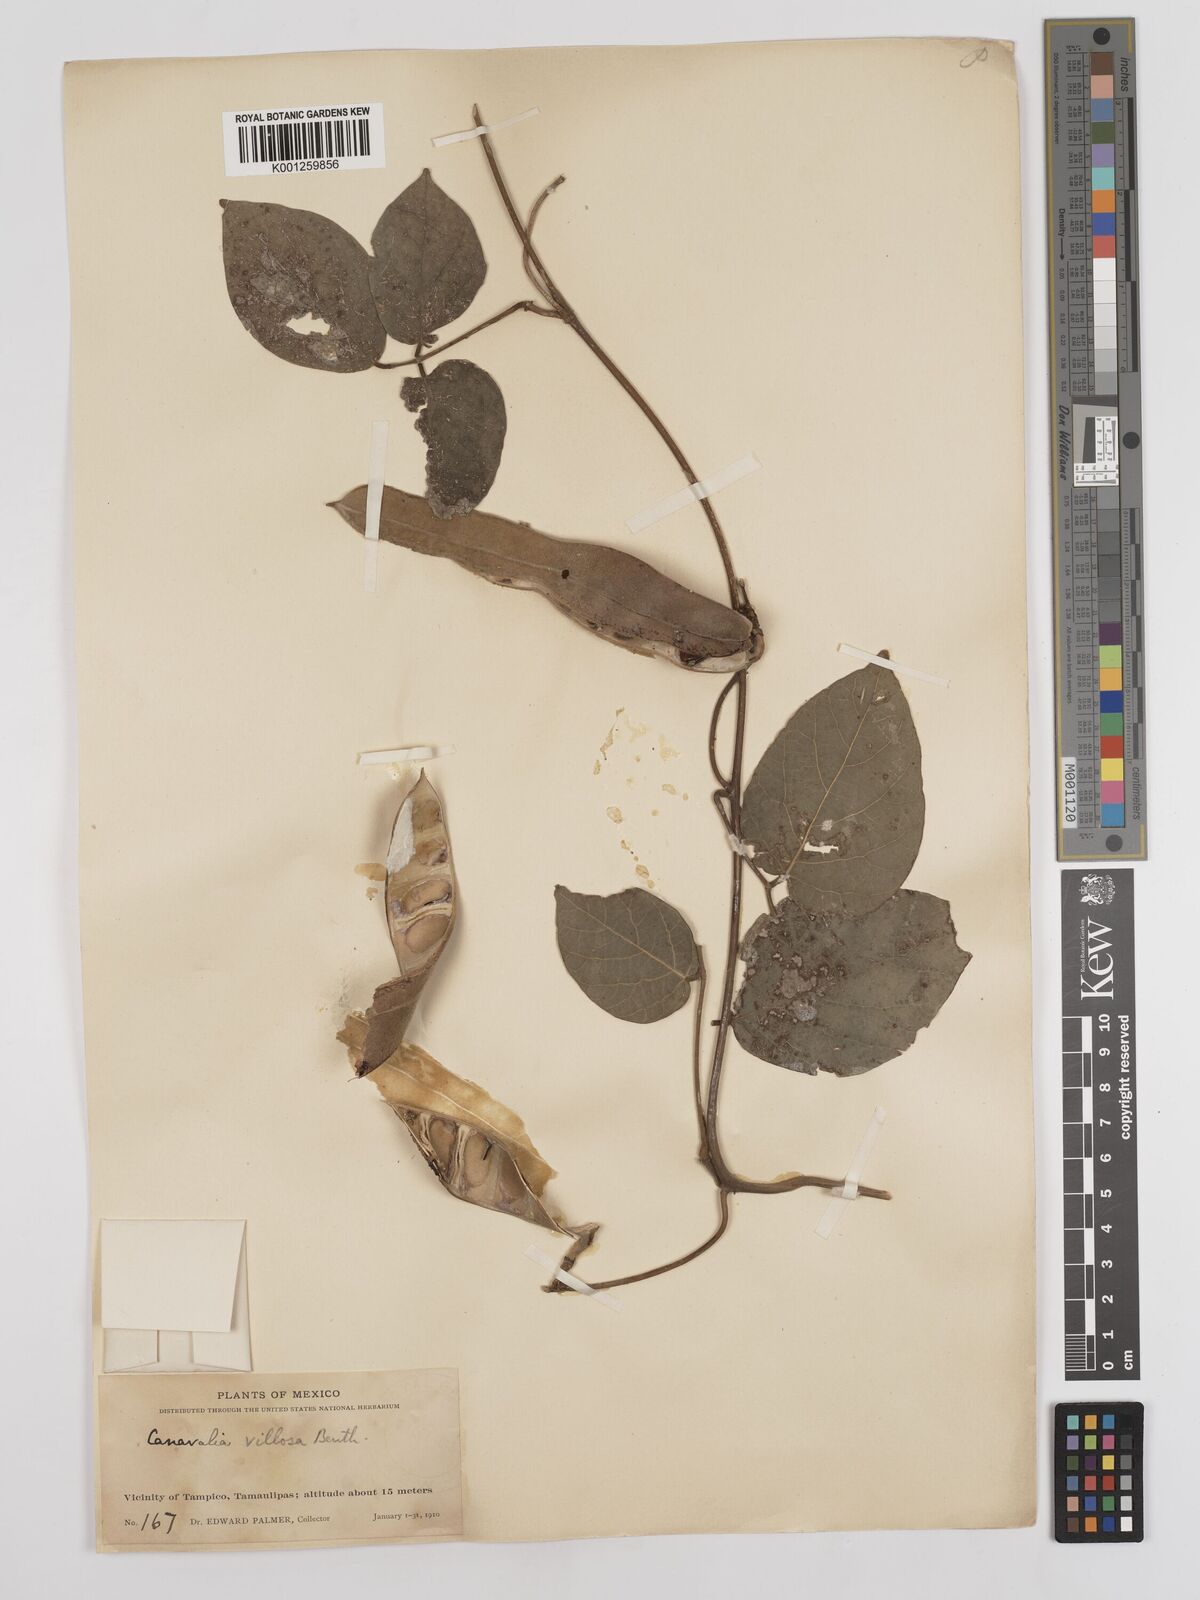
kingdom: Plantae
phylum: Tracheophyta
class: Magnoliopsida
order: Fabales
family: Fabaceae
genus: Canavalia
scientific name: Canavalia villosa
